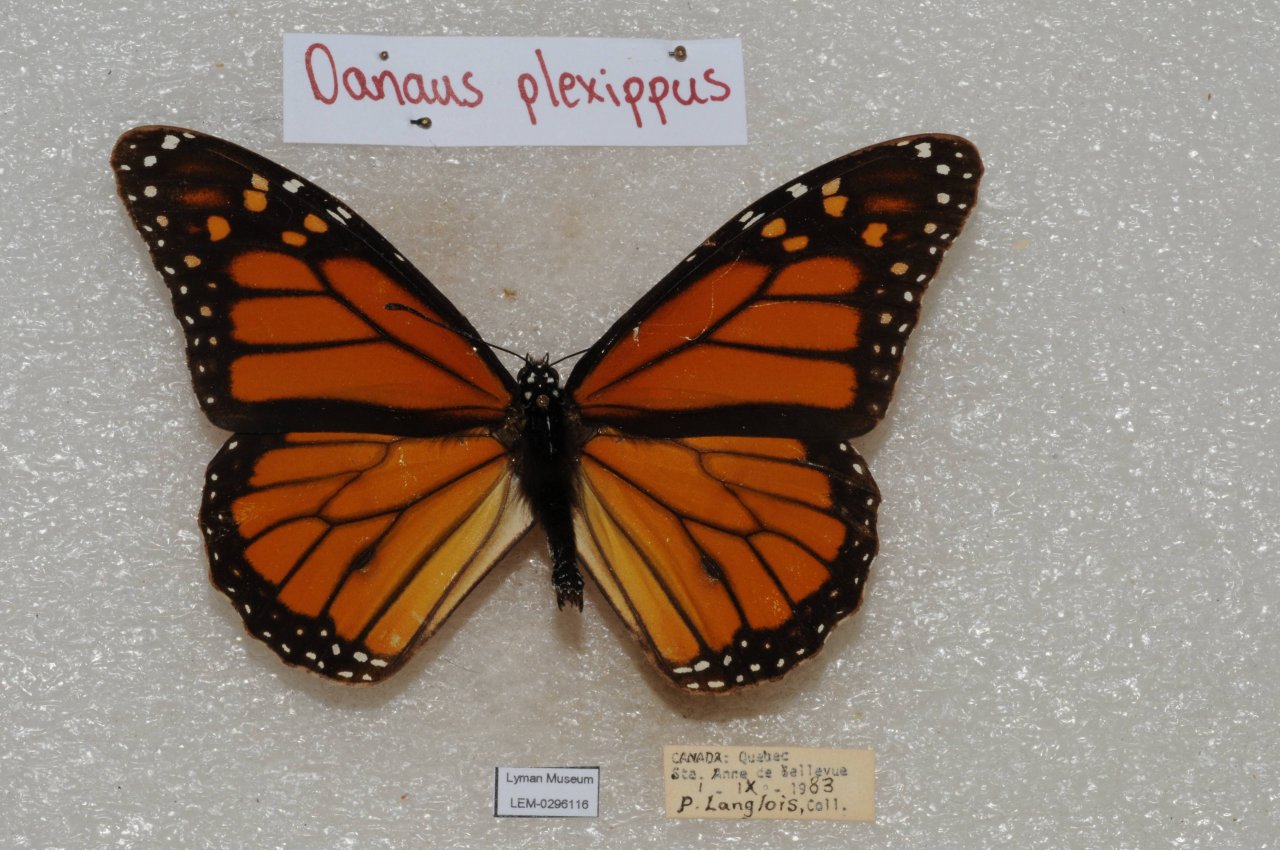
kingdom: Animalia
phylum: Arthropoda
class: Insecta
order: Lepidoptera
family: Nymphalidae
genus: Danaus
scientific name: Danaus plexippus
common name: Monarch
